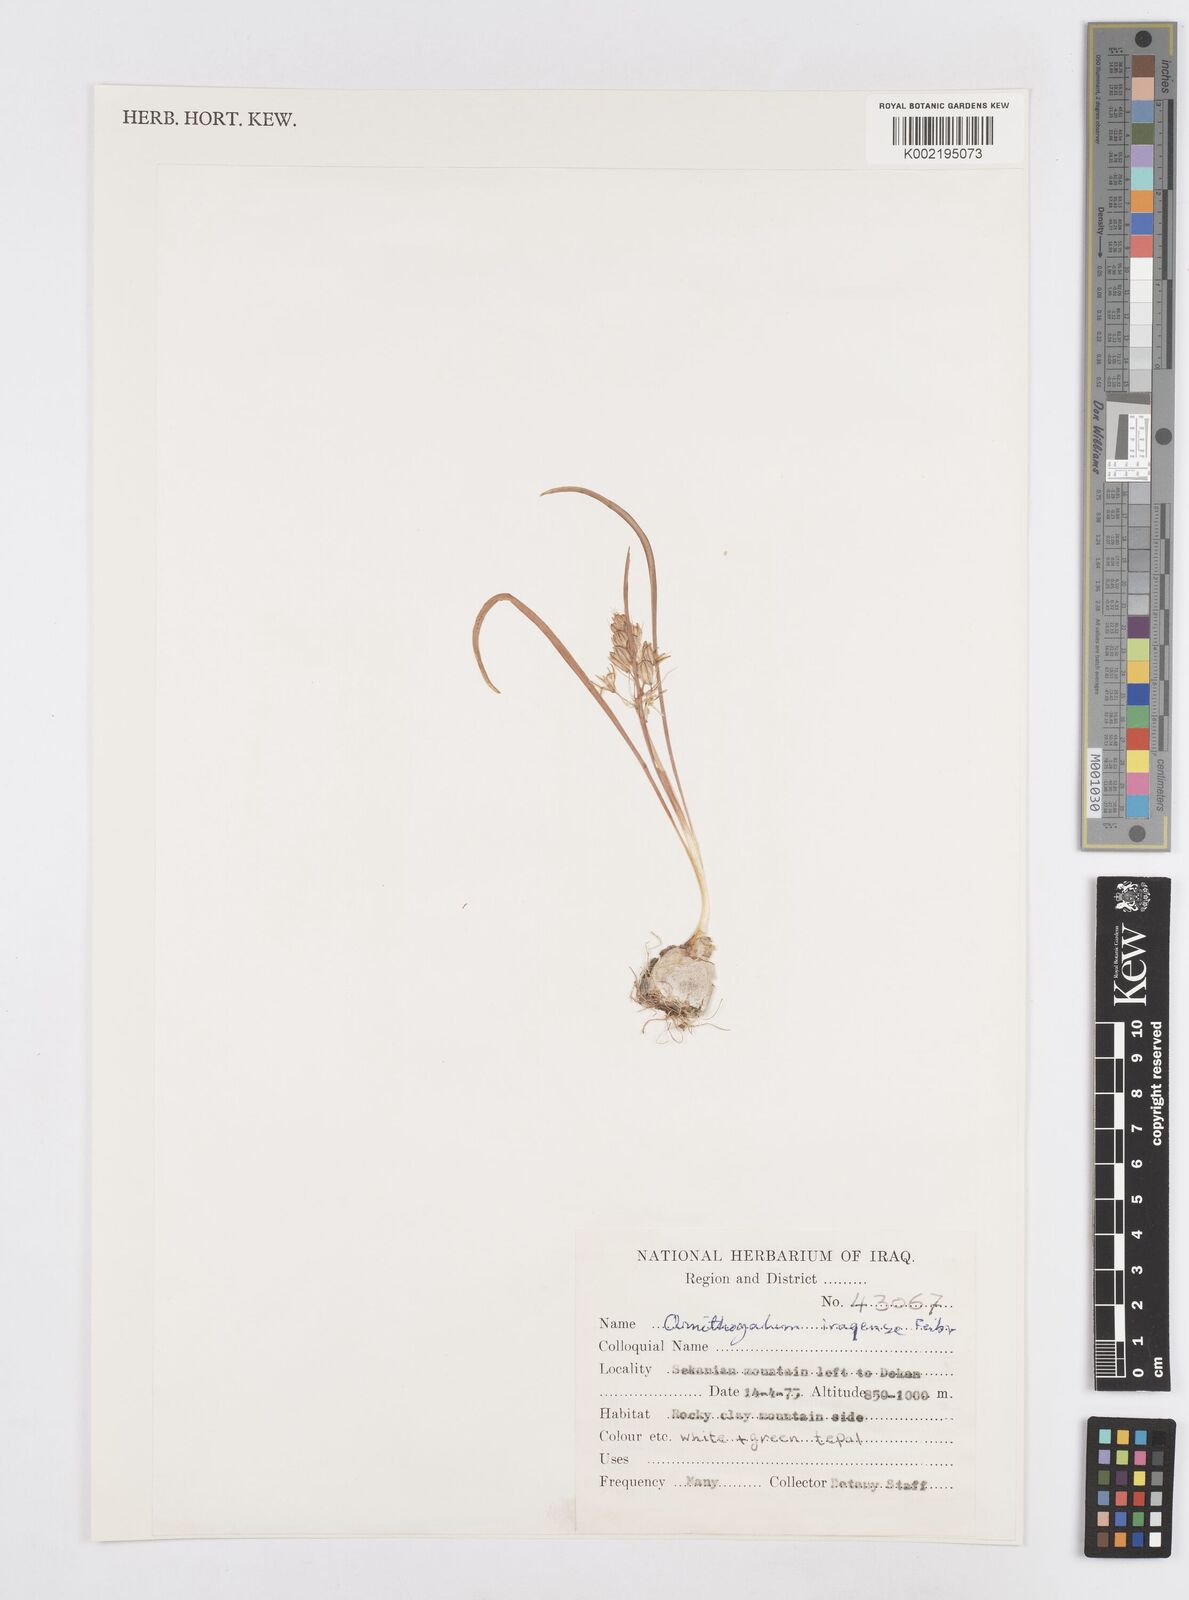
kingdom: Plantae
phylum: Tracheophyta
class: Liliopsida
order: Asparagales
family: Asparagaceae
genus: Ornithogalum
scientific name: Ornithogalum iraqense
